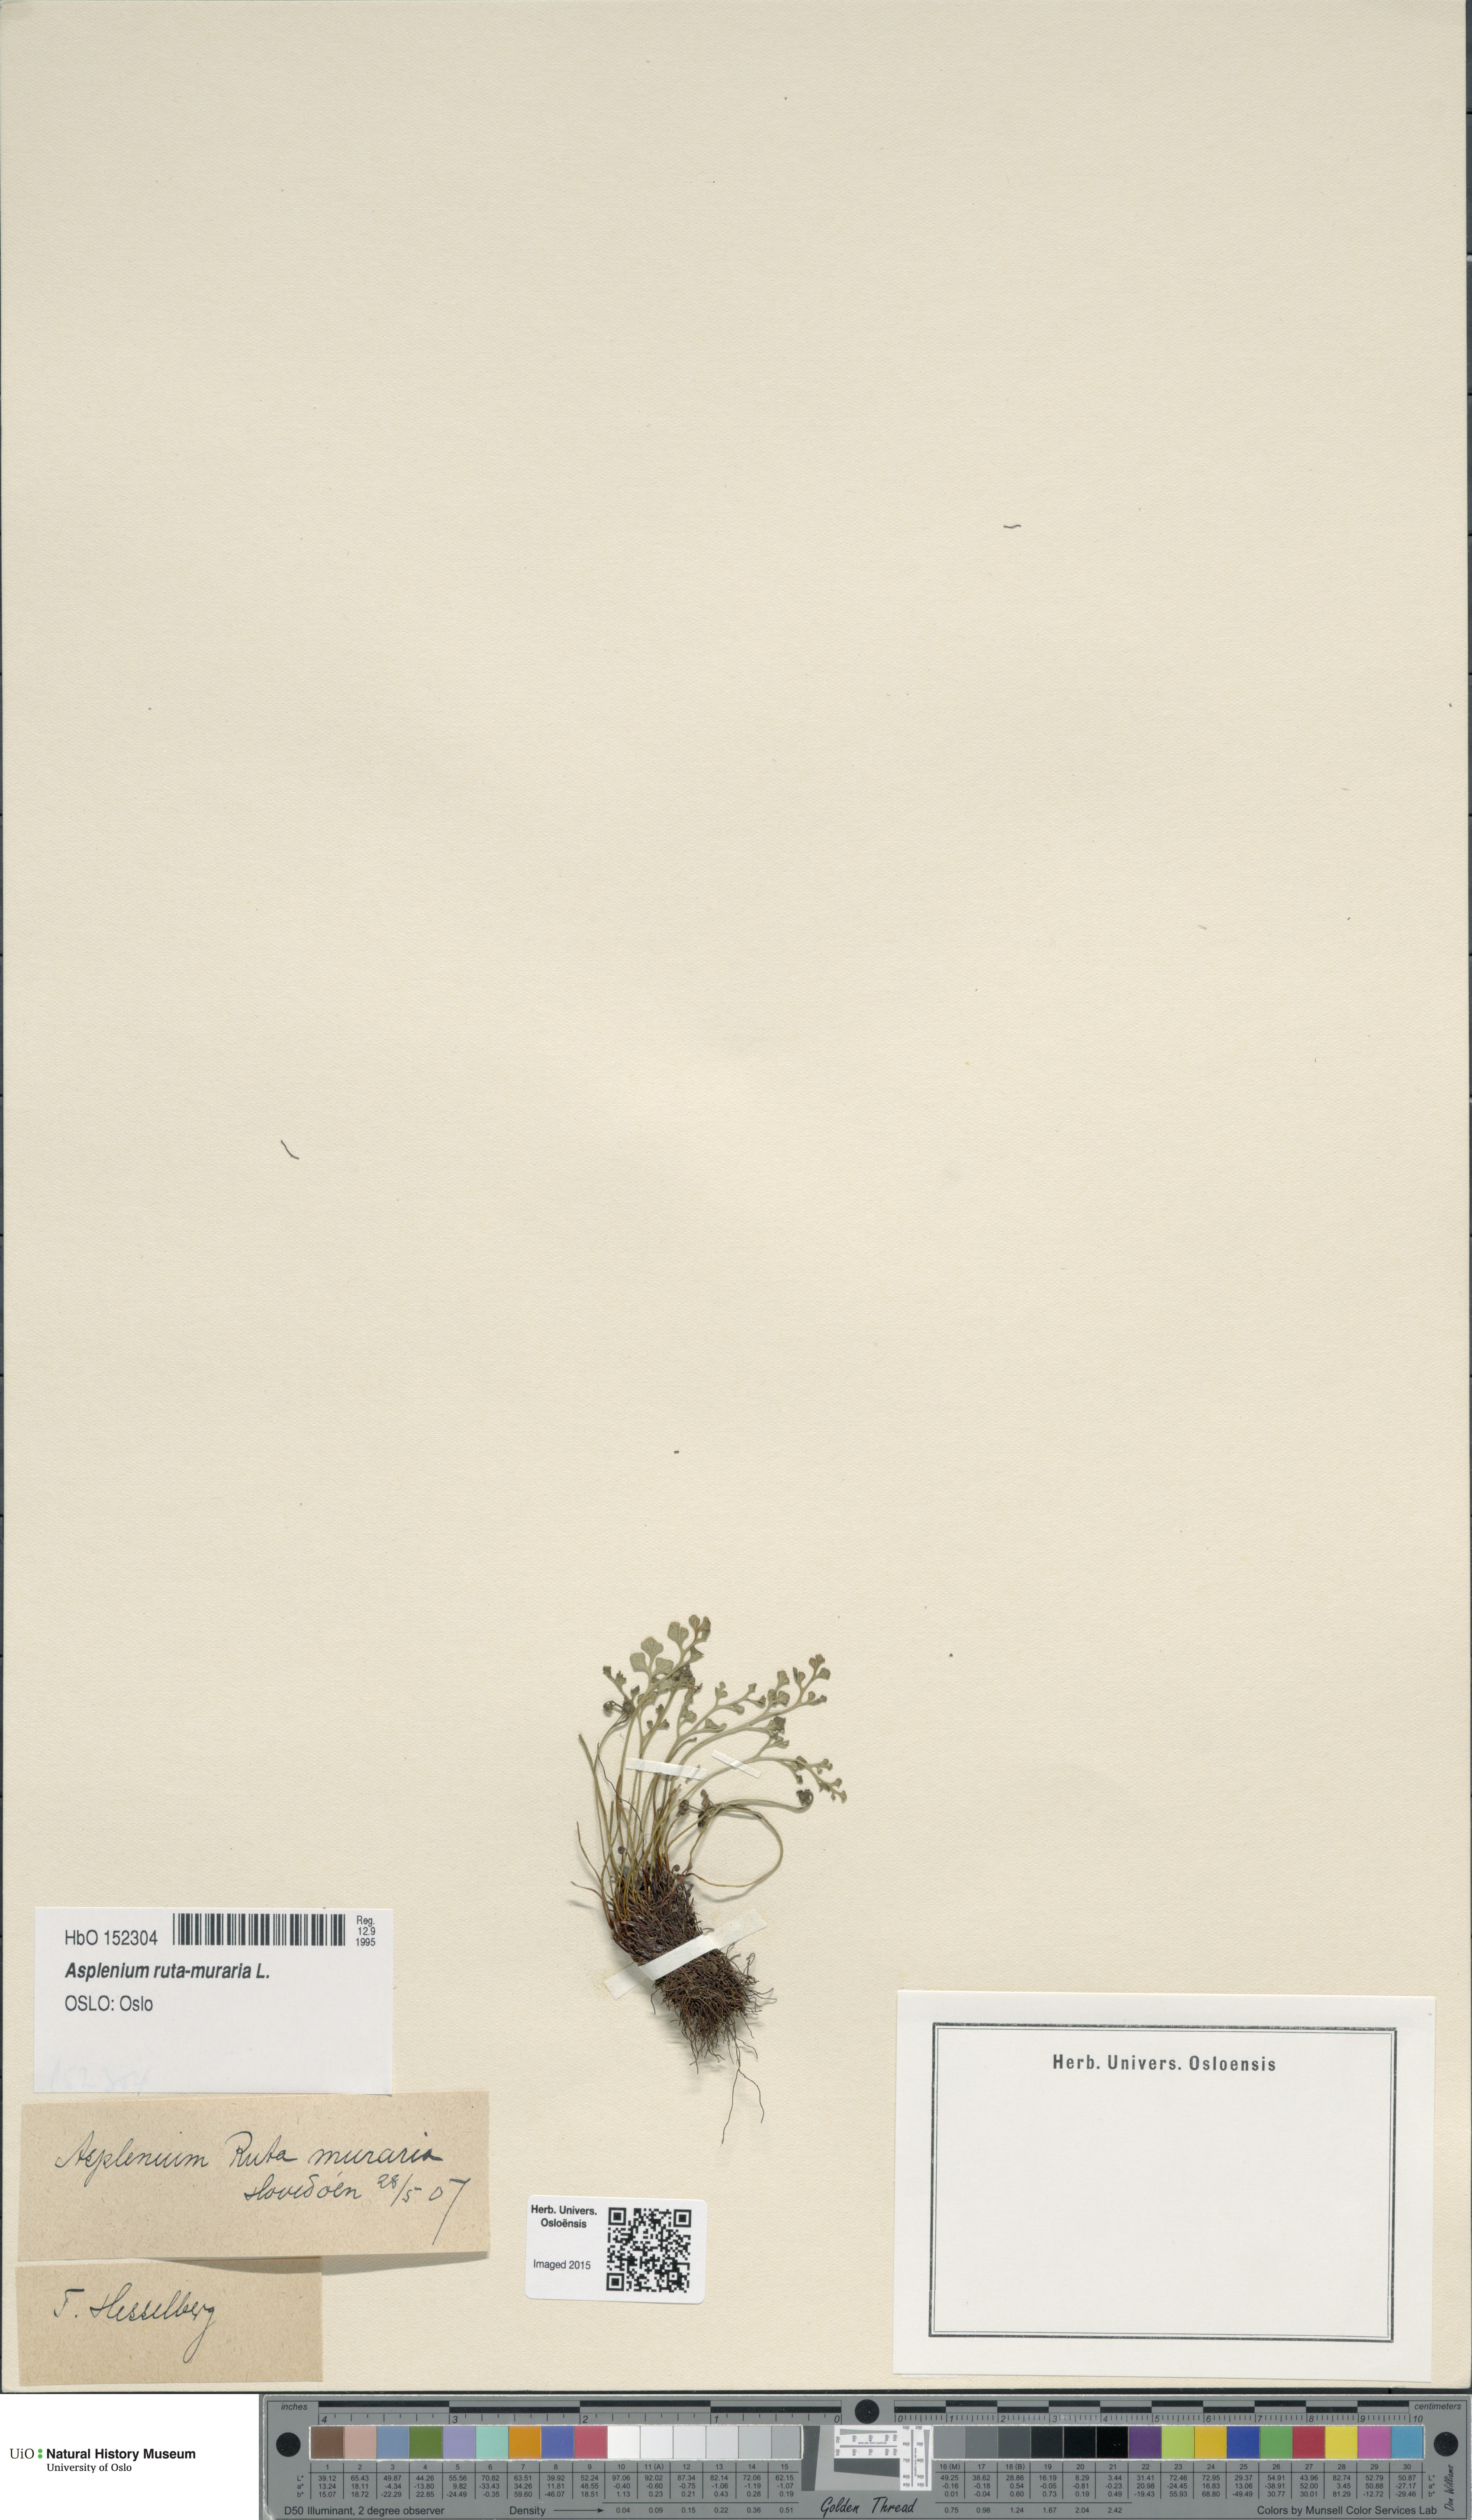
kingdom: Plantae
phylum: Tracheophyta
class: Polypodiopsida
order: Polypodiales
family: Aspleniaceae
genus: Asplenium
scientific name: Asplenium ruta-muraria
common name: Wall-rue
